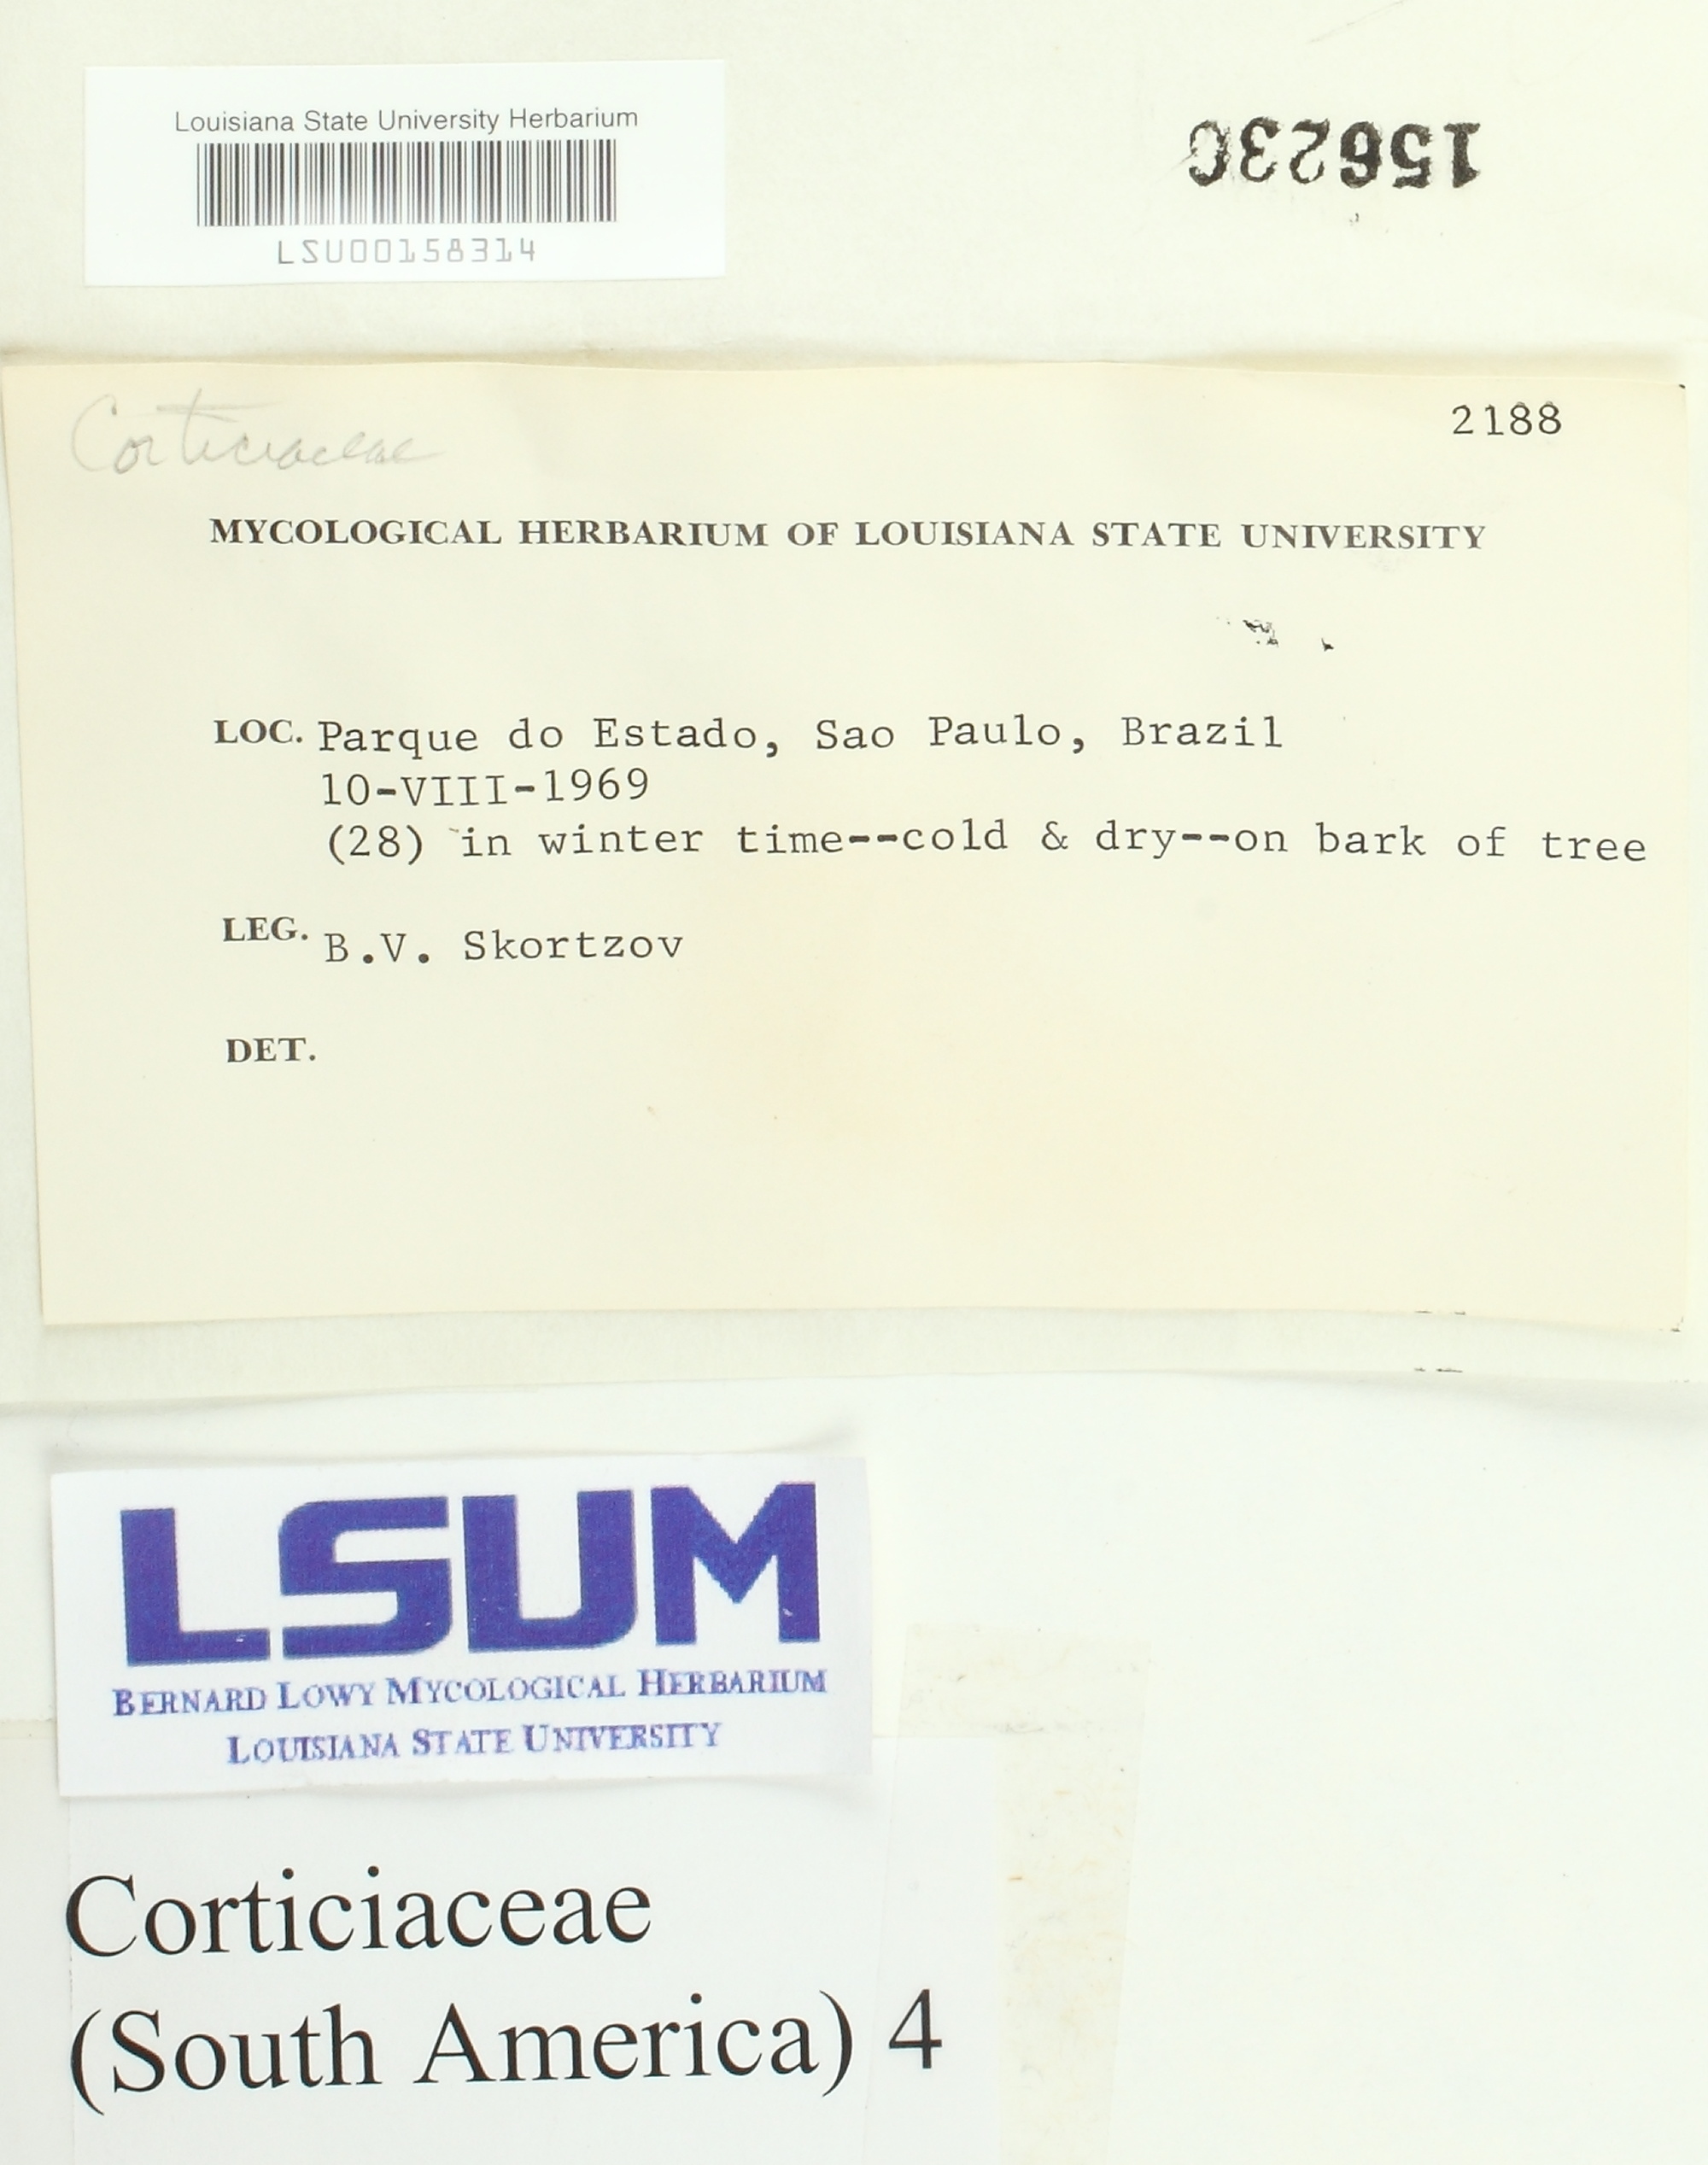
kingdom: Fungi
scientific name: Fungi
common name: Fungi
